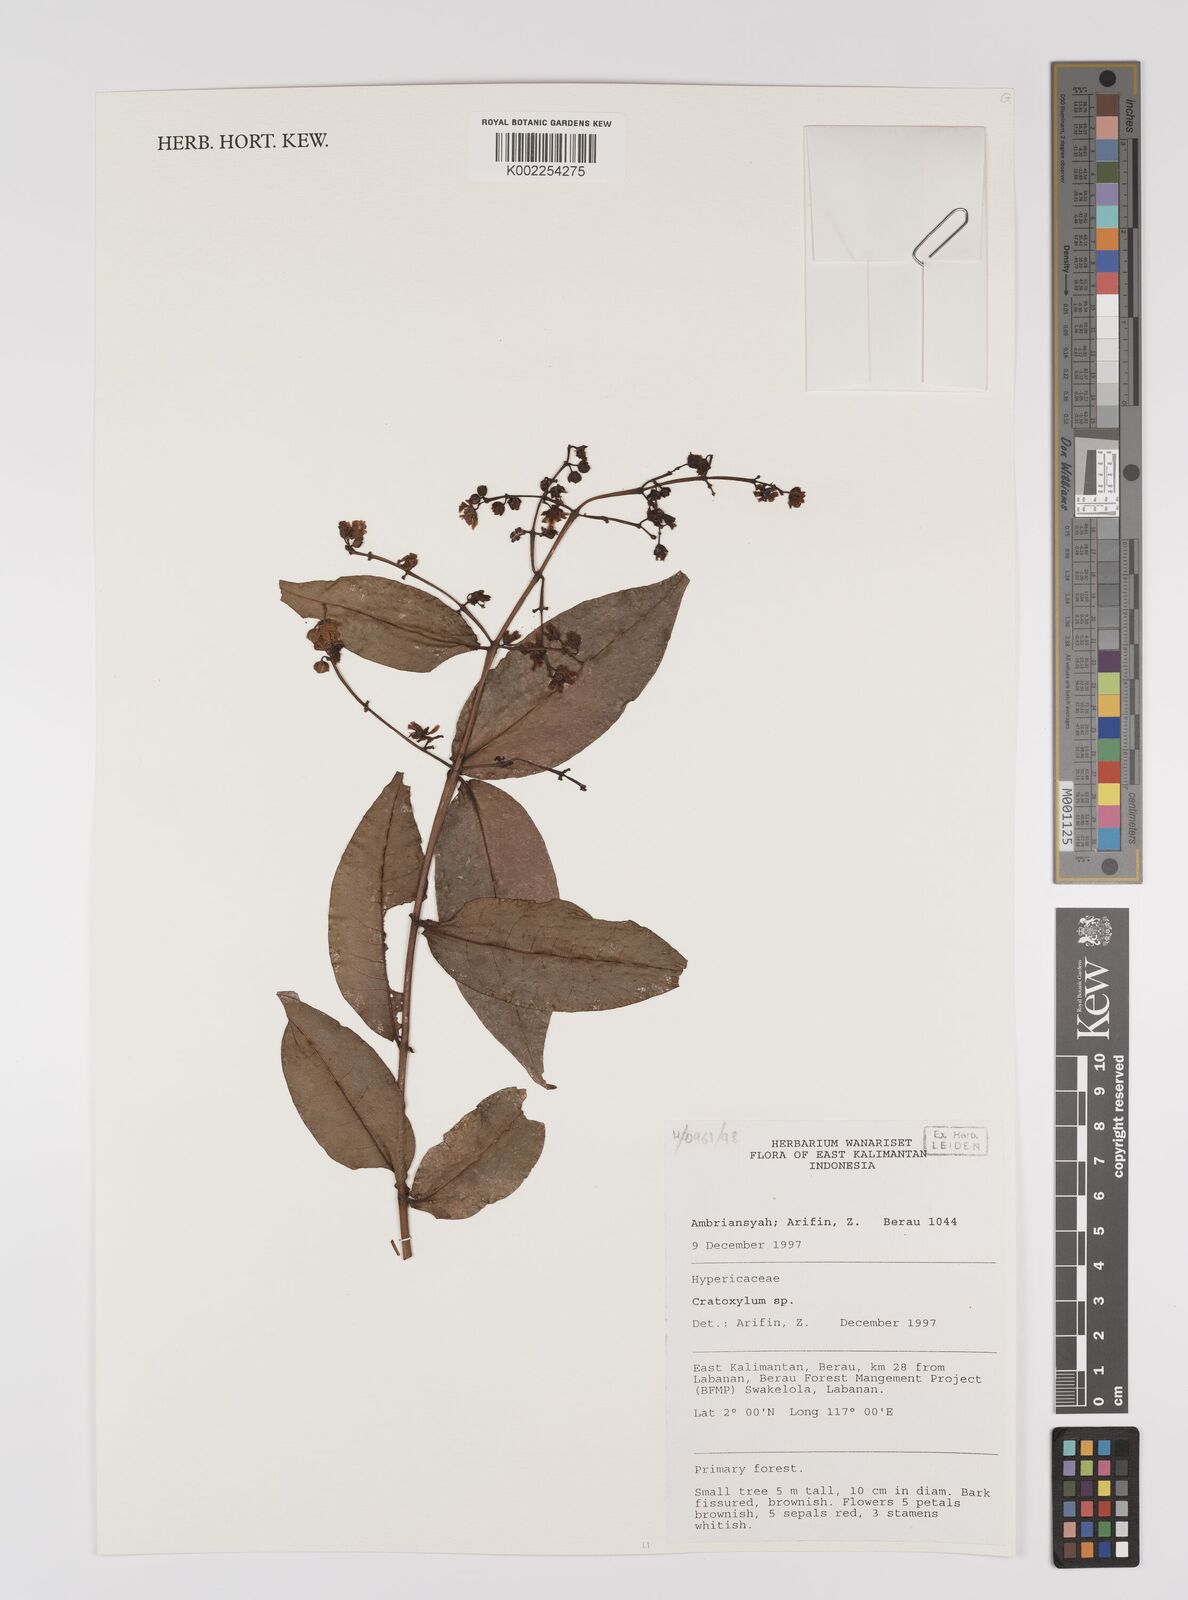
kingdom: Plantae
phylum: Tracheophyta
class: Magnoliopsida
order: Malpighiales
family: Hypericaceae
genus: Cratoxylum
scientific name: Cratoxylum
